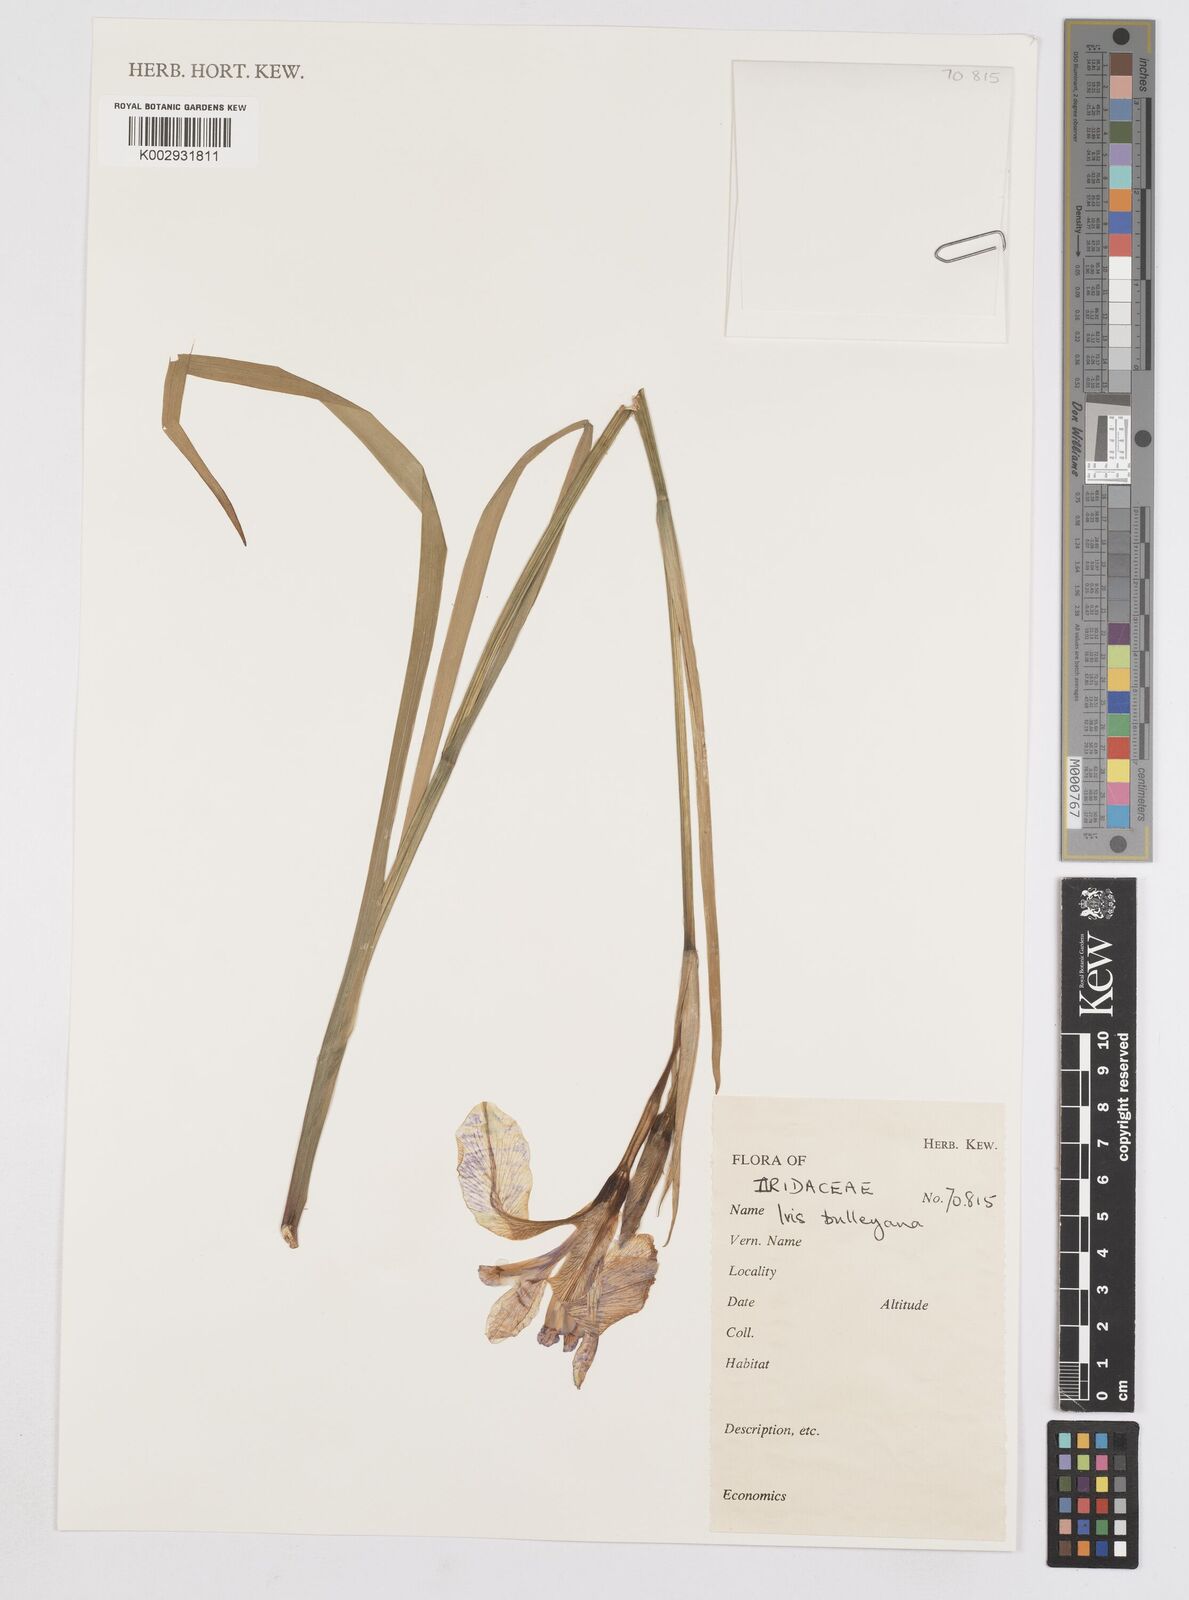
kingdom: Plantae
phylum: Tracheophyta
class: Liliopsida
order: Asparagales
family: Iridaceae
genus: Iris
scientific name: Iris clarkei
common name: Tibet iris
